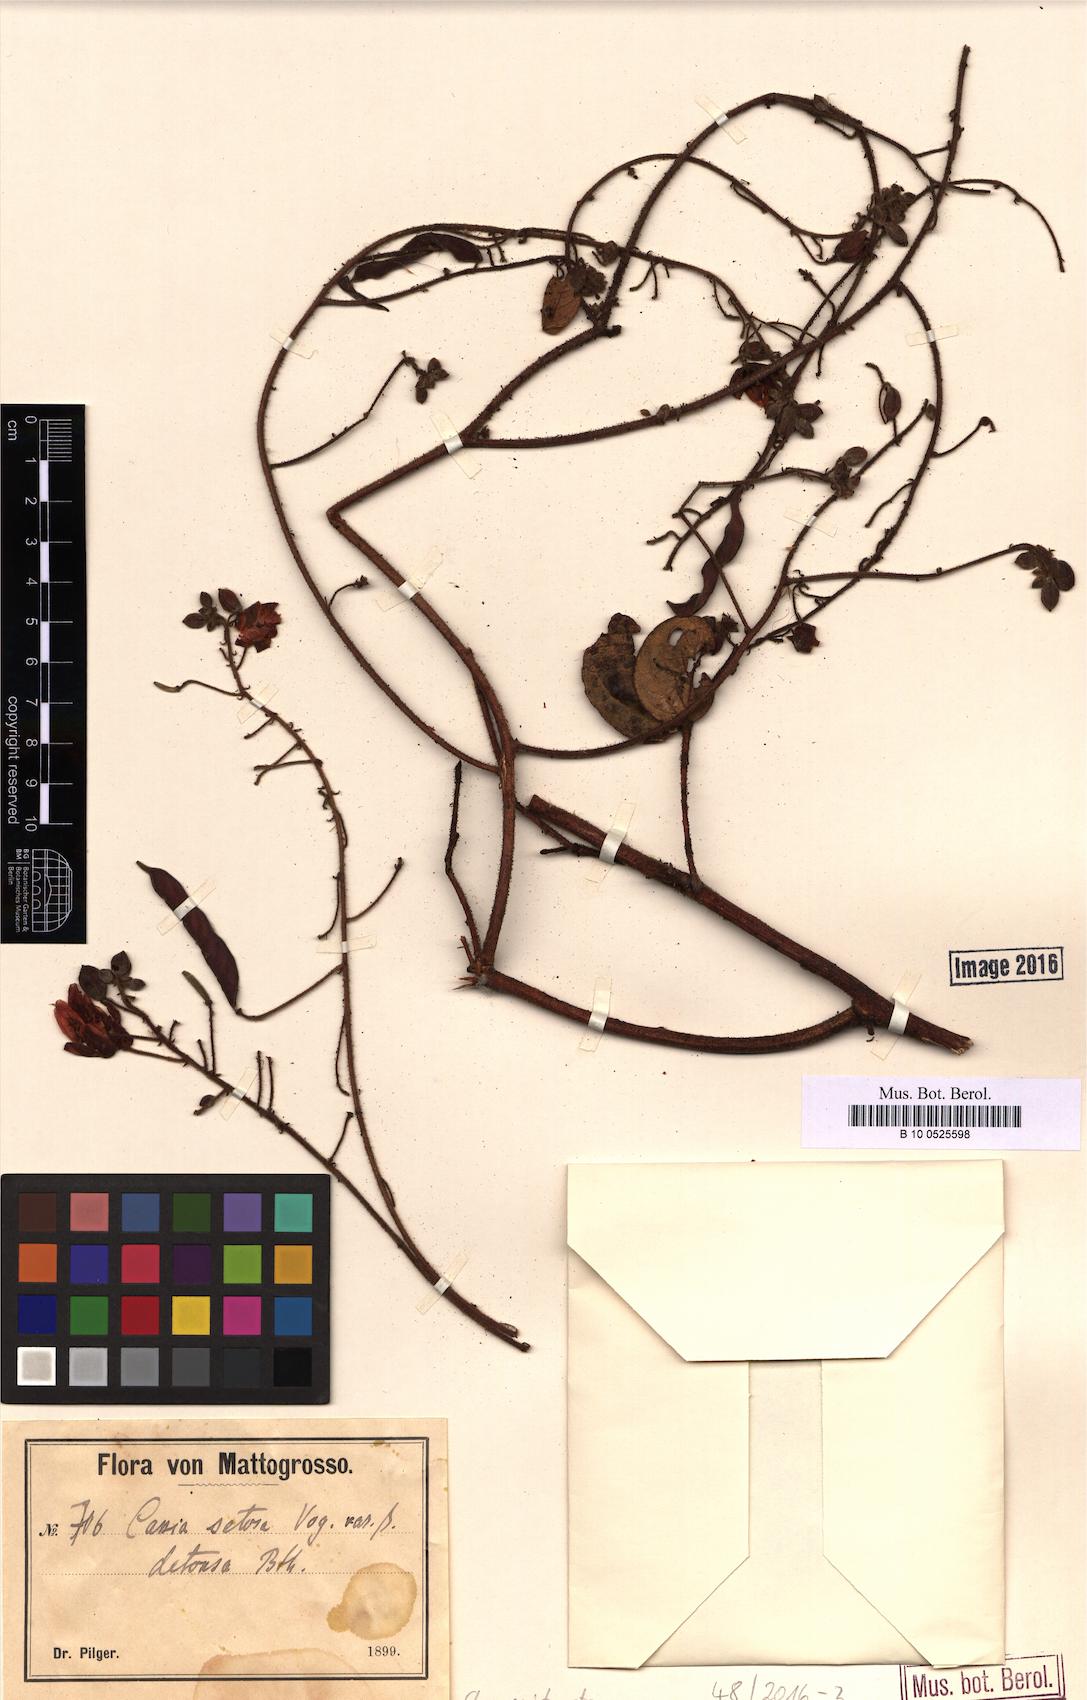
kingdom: Plantae
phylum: Tracheophyta
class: Magnoliopsida
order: Fabales
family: Fabaceae
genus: Chamaecrista
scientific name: Chamaecrista setosa
